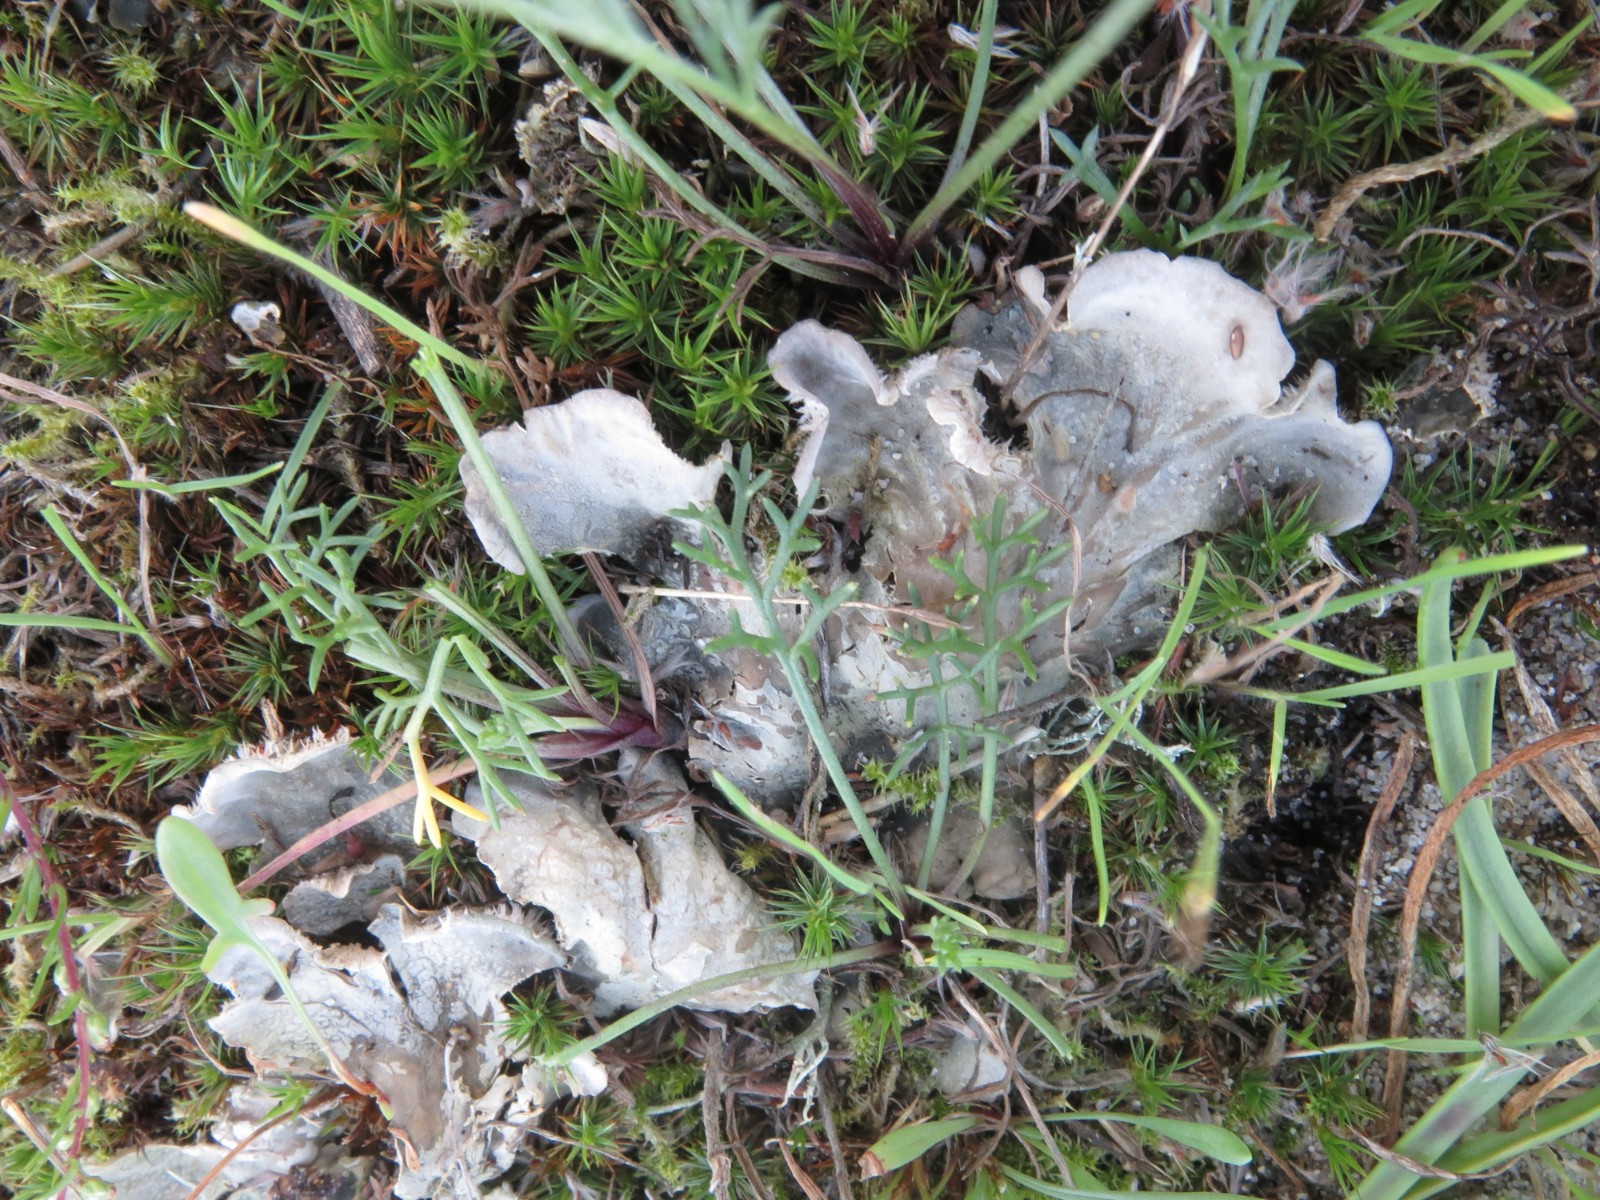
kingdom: Fungi
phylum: Ascomycota
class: Lecanoromycetes
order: Peltigerales
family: Peltigeraceae
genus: Peltigera
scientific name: Peltigera canina
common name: hunde-skjoldlav
